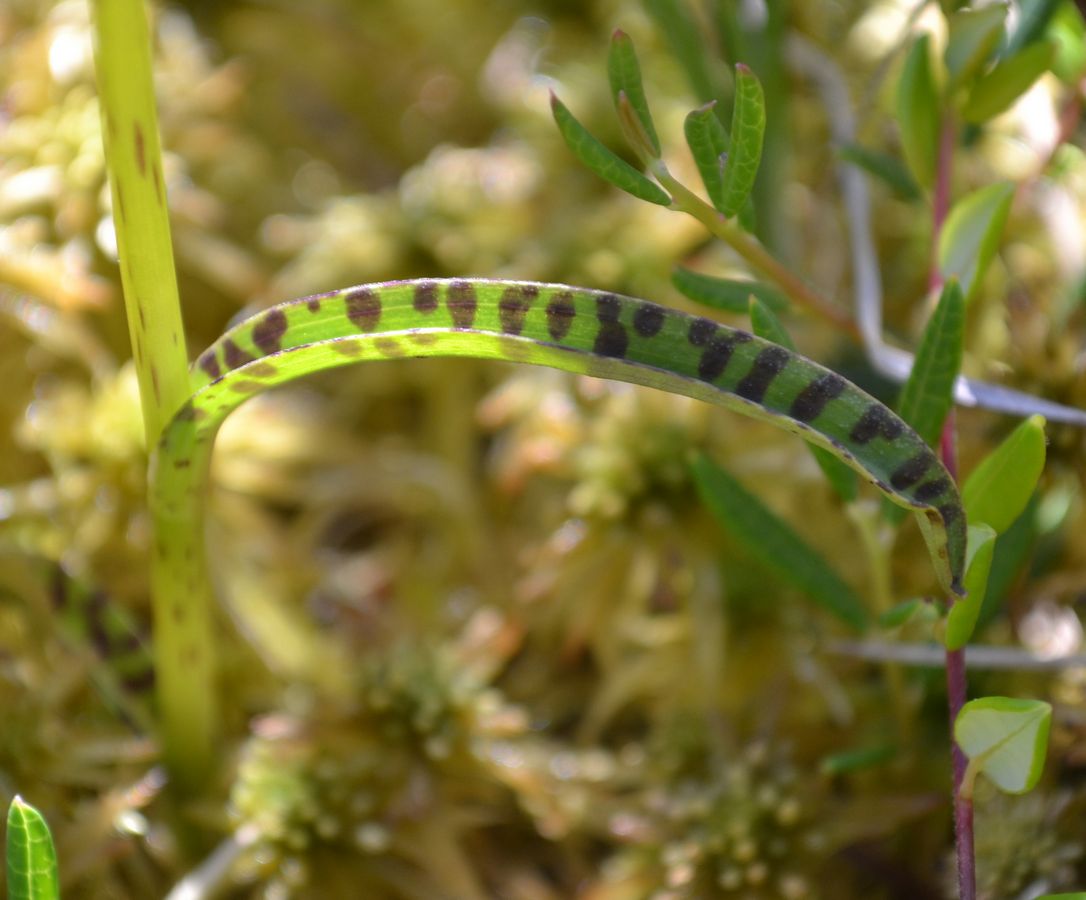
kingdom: Plantae
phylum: Tracheophyta
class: Liliopsida
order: Asparagales
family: Orchidaceae
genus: Dactylorhiza
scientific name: Dactylorhiza maculata
